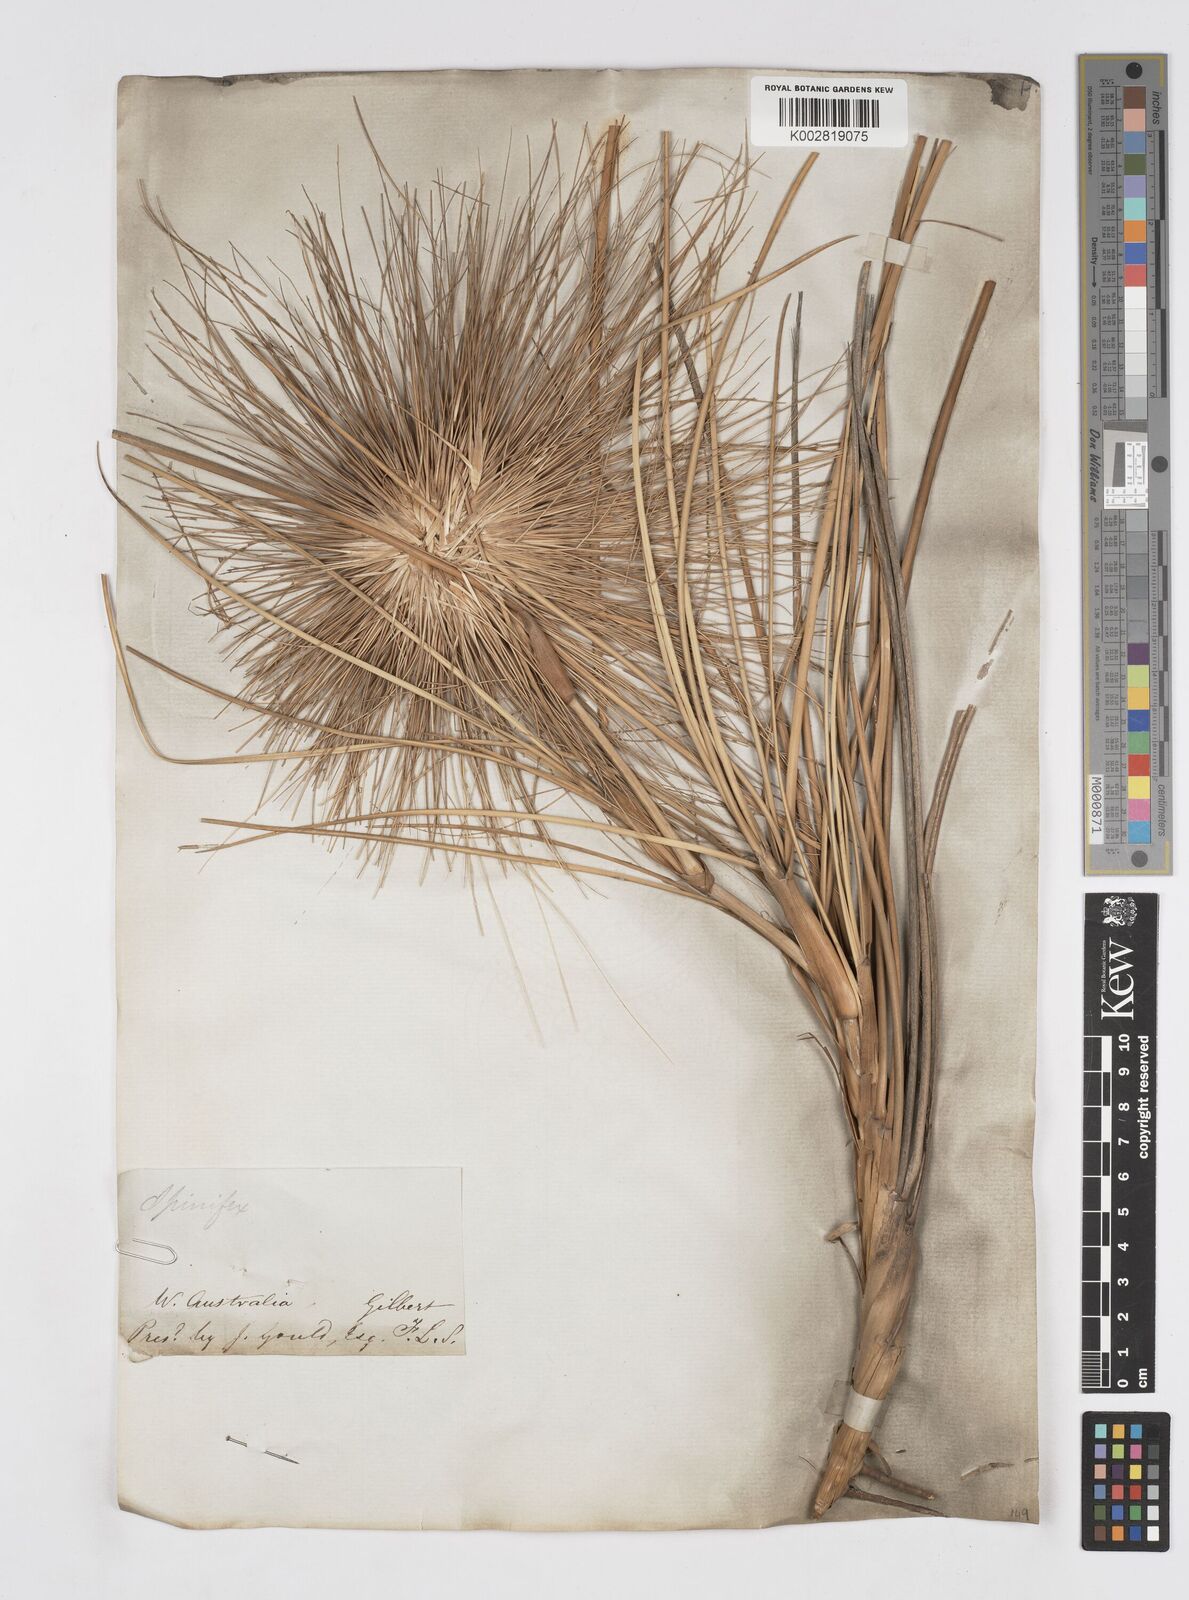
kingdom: Plantae
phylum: Tracheophyta
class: Liliopsida
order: Poales
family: Poaceae
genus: Spinifex
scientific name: Spinifex longifolius
